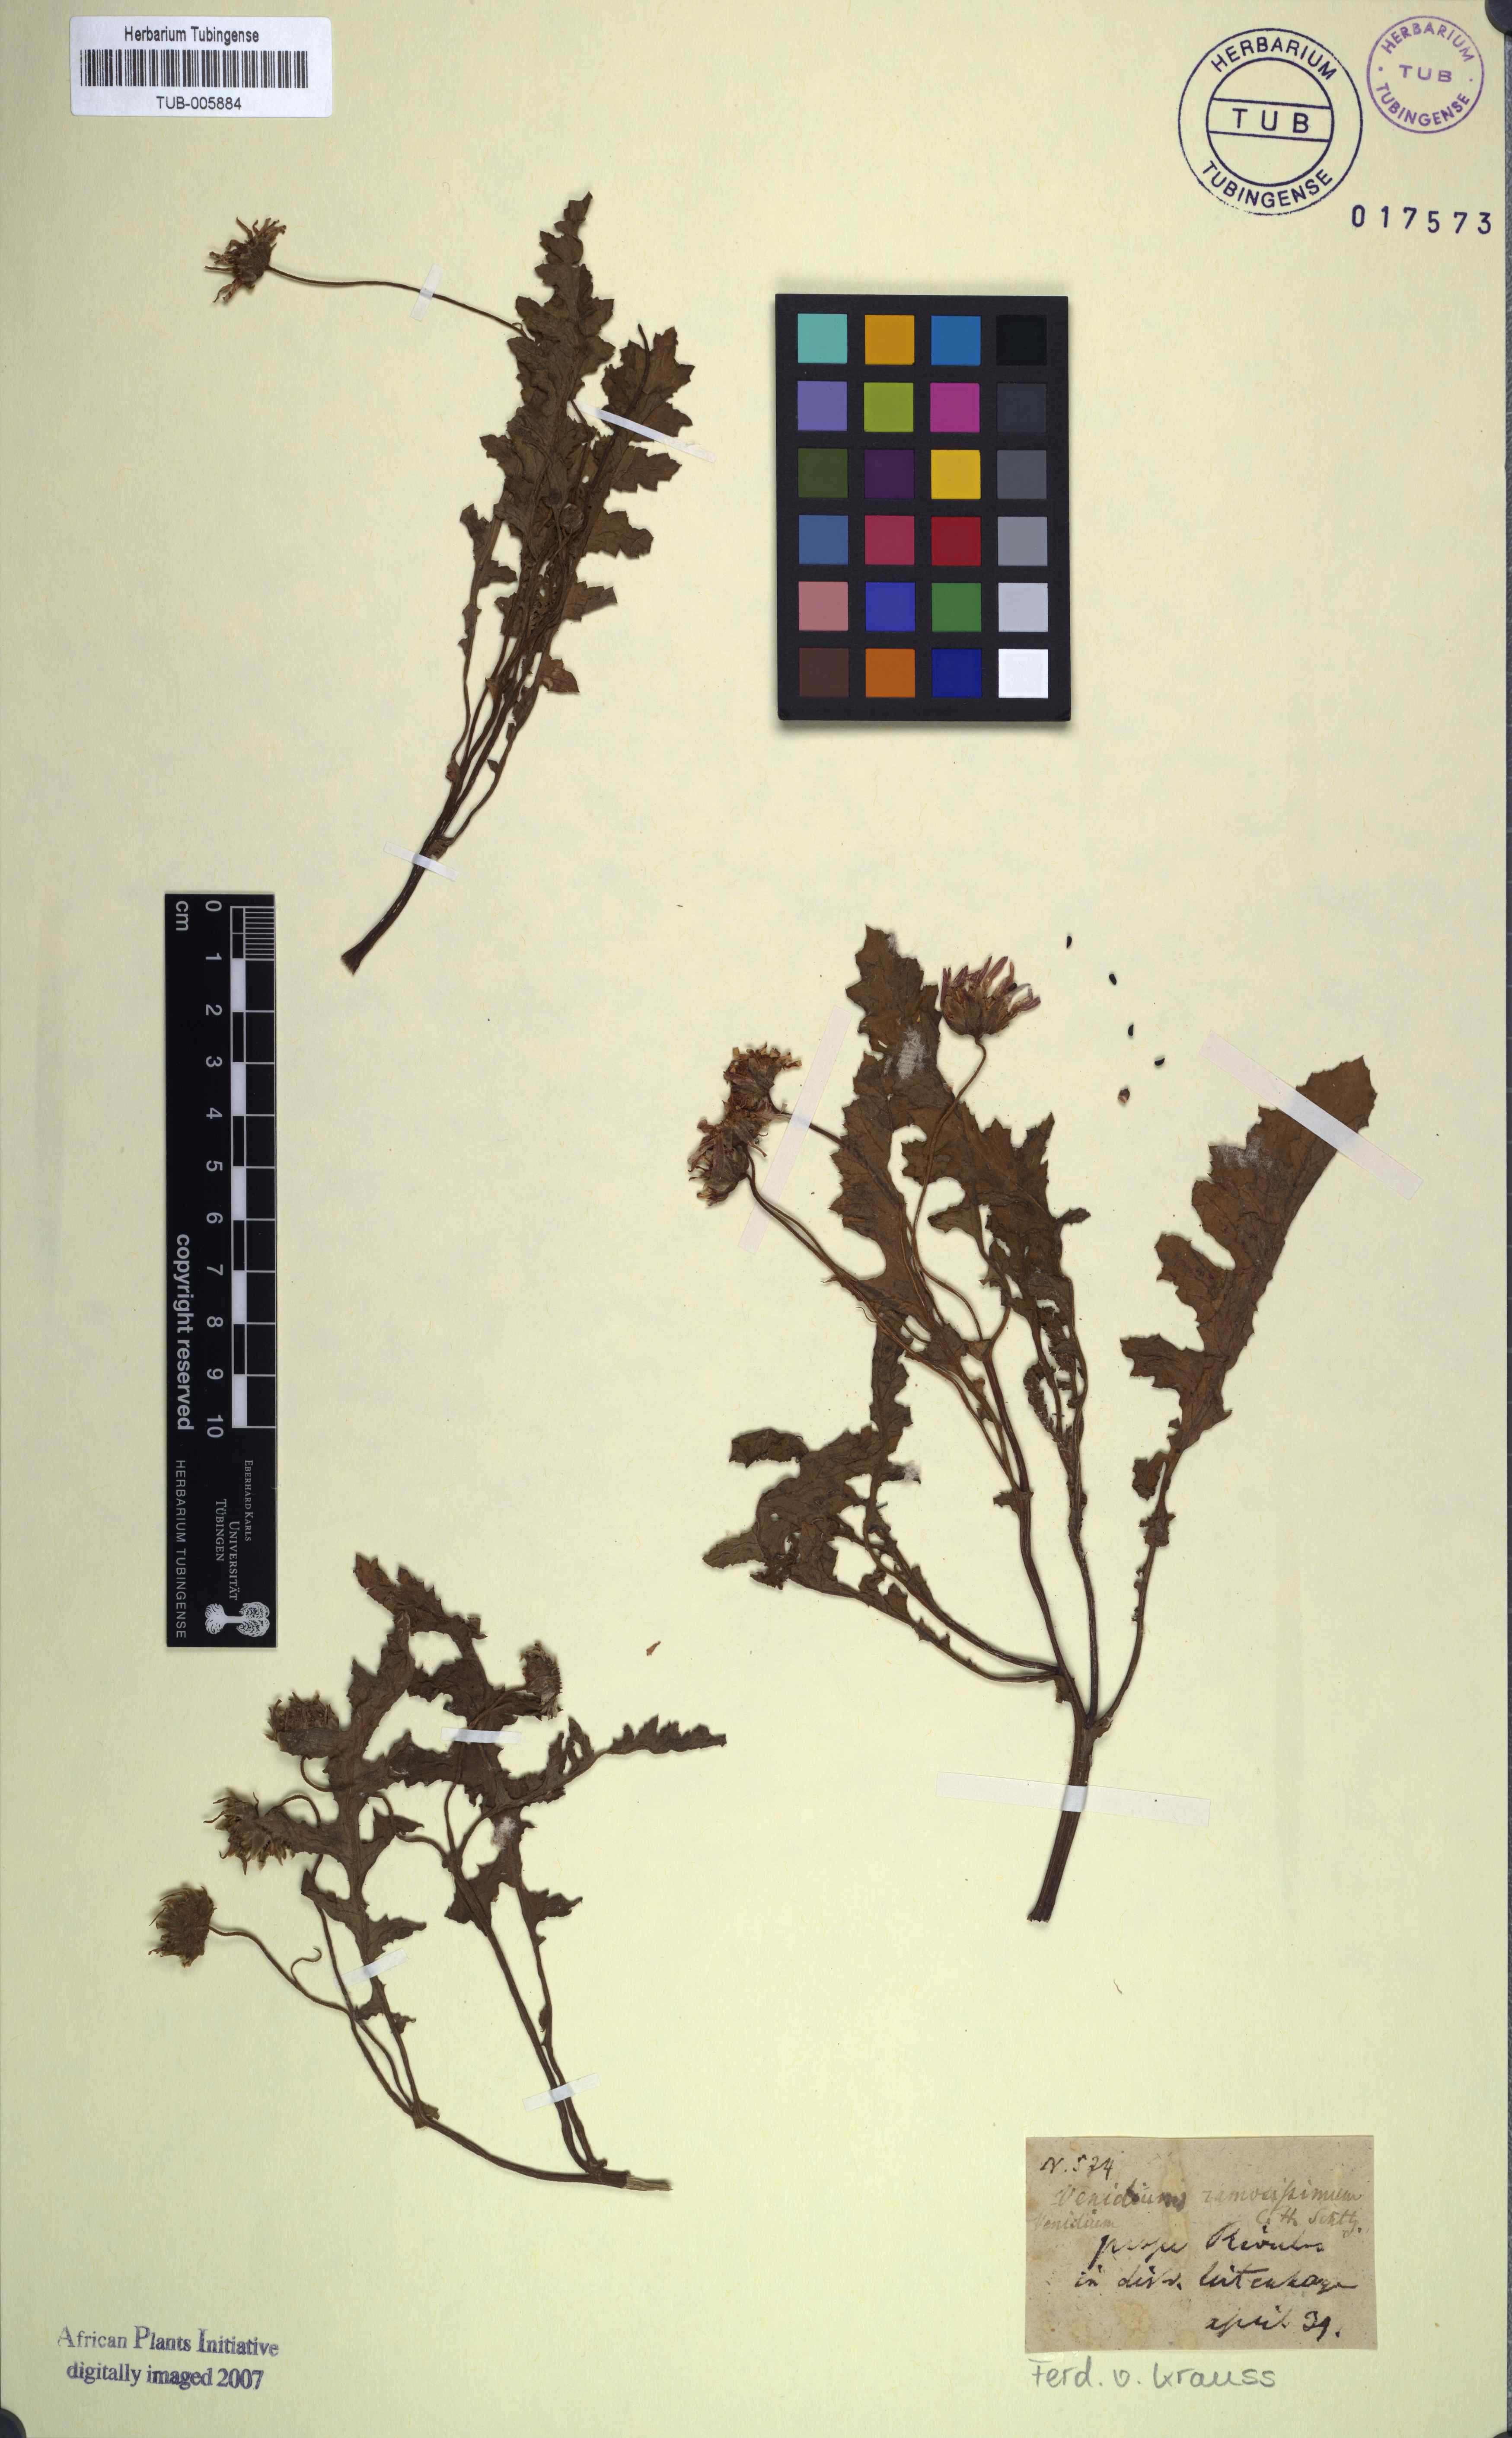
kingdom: Plantae
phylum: Tracheophyta
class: Magnoliopsida
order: Asterales
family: Asteraceae
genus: Arctotis
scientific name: Arctotis Venidium ramosissimum
